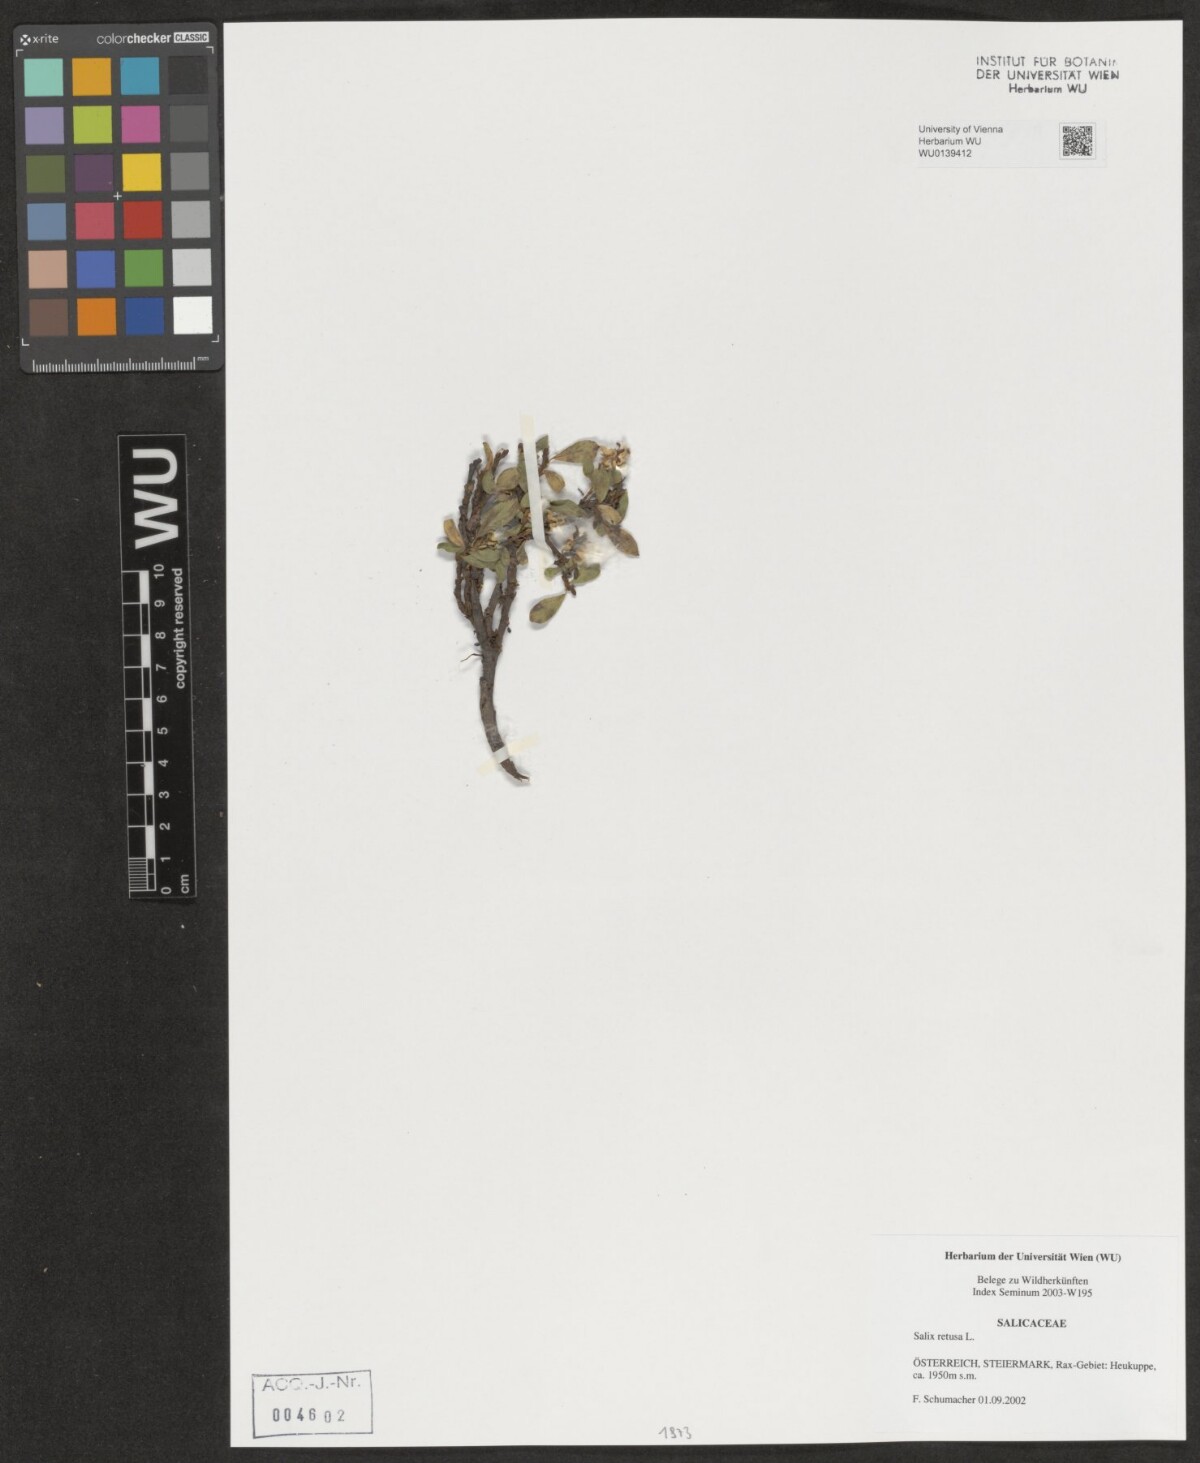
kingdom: Plantae
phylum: Tracheophyta
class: Magnoliopsida
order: Malpighiales
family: Salicaceae
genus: Salix
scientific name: Salix retusa
